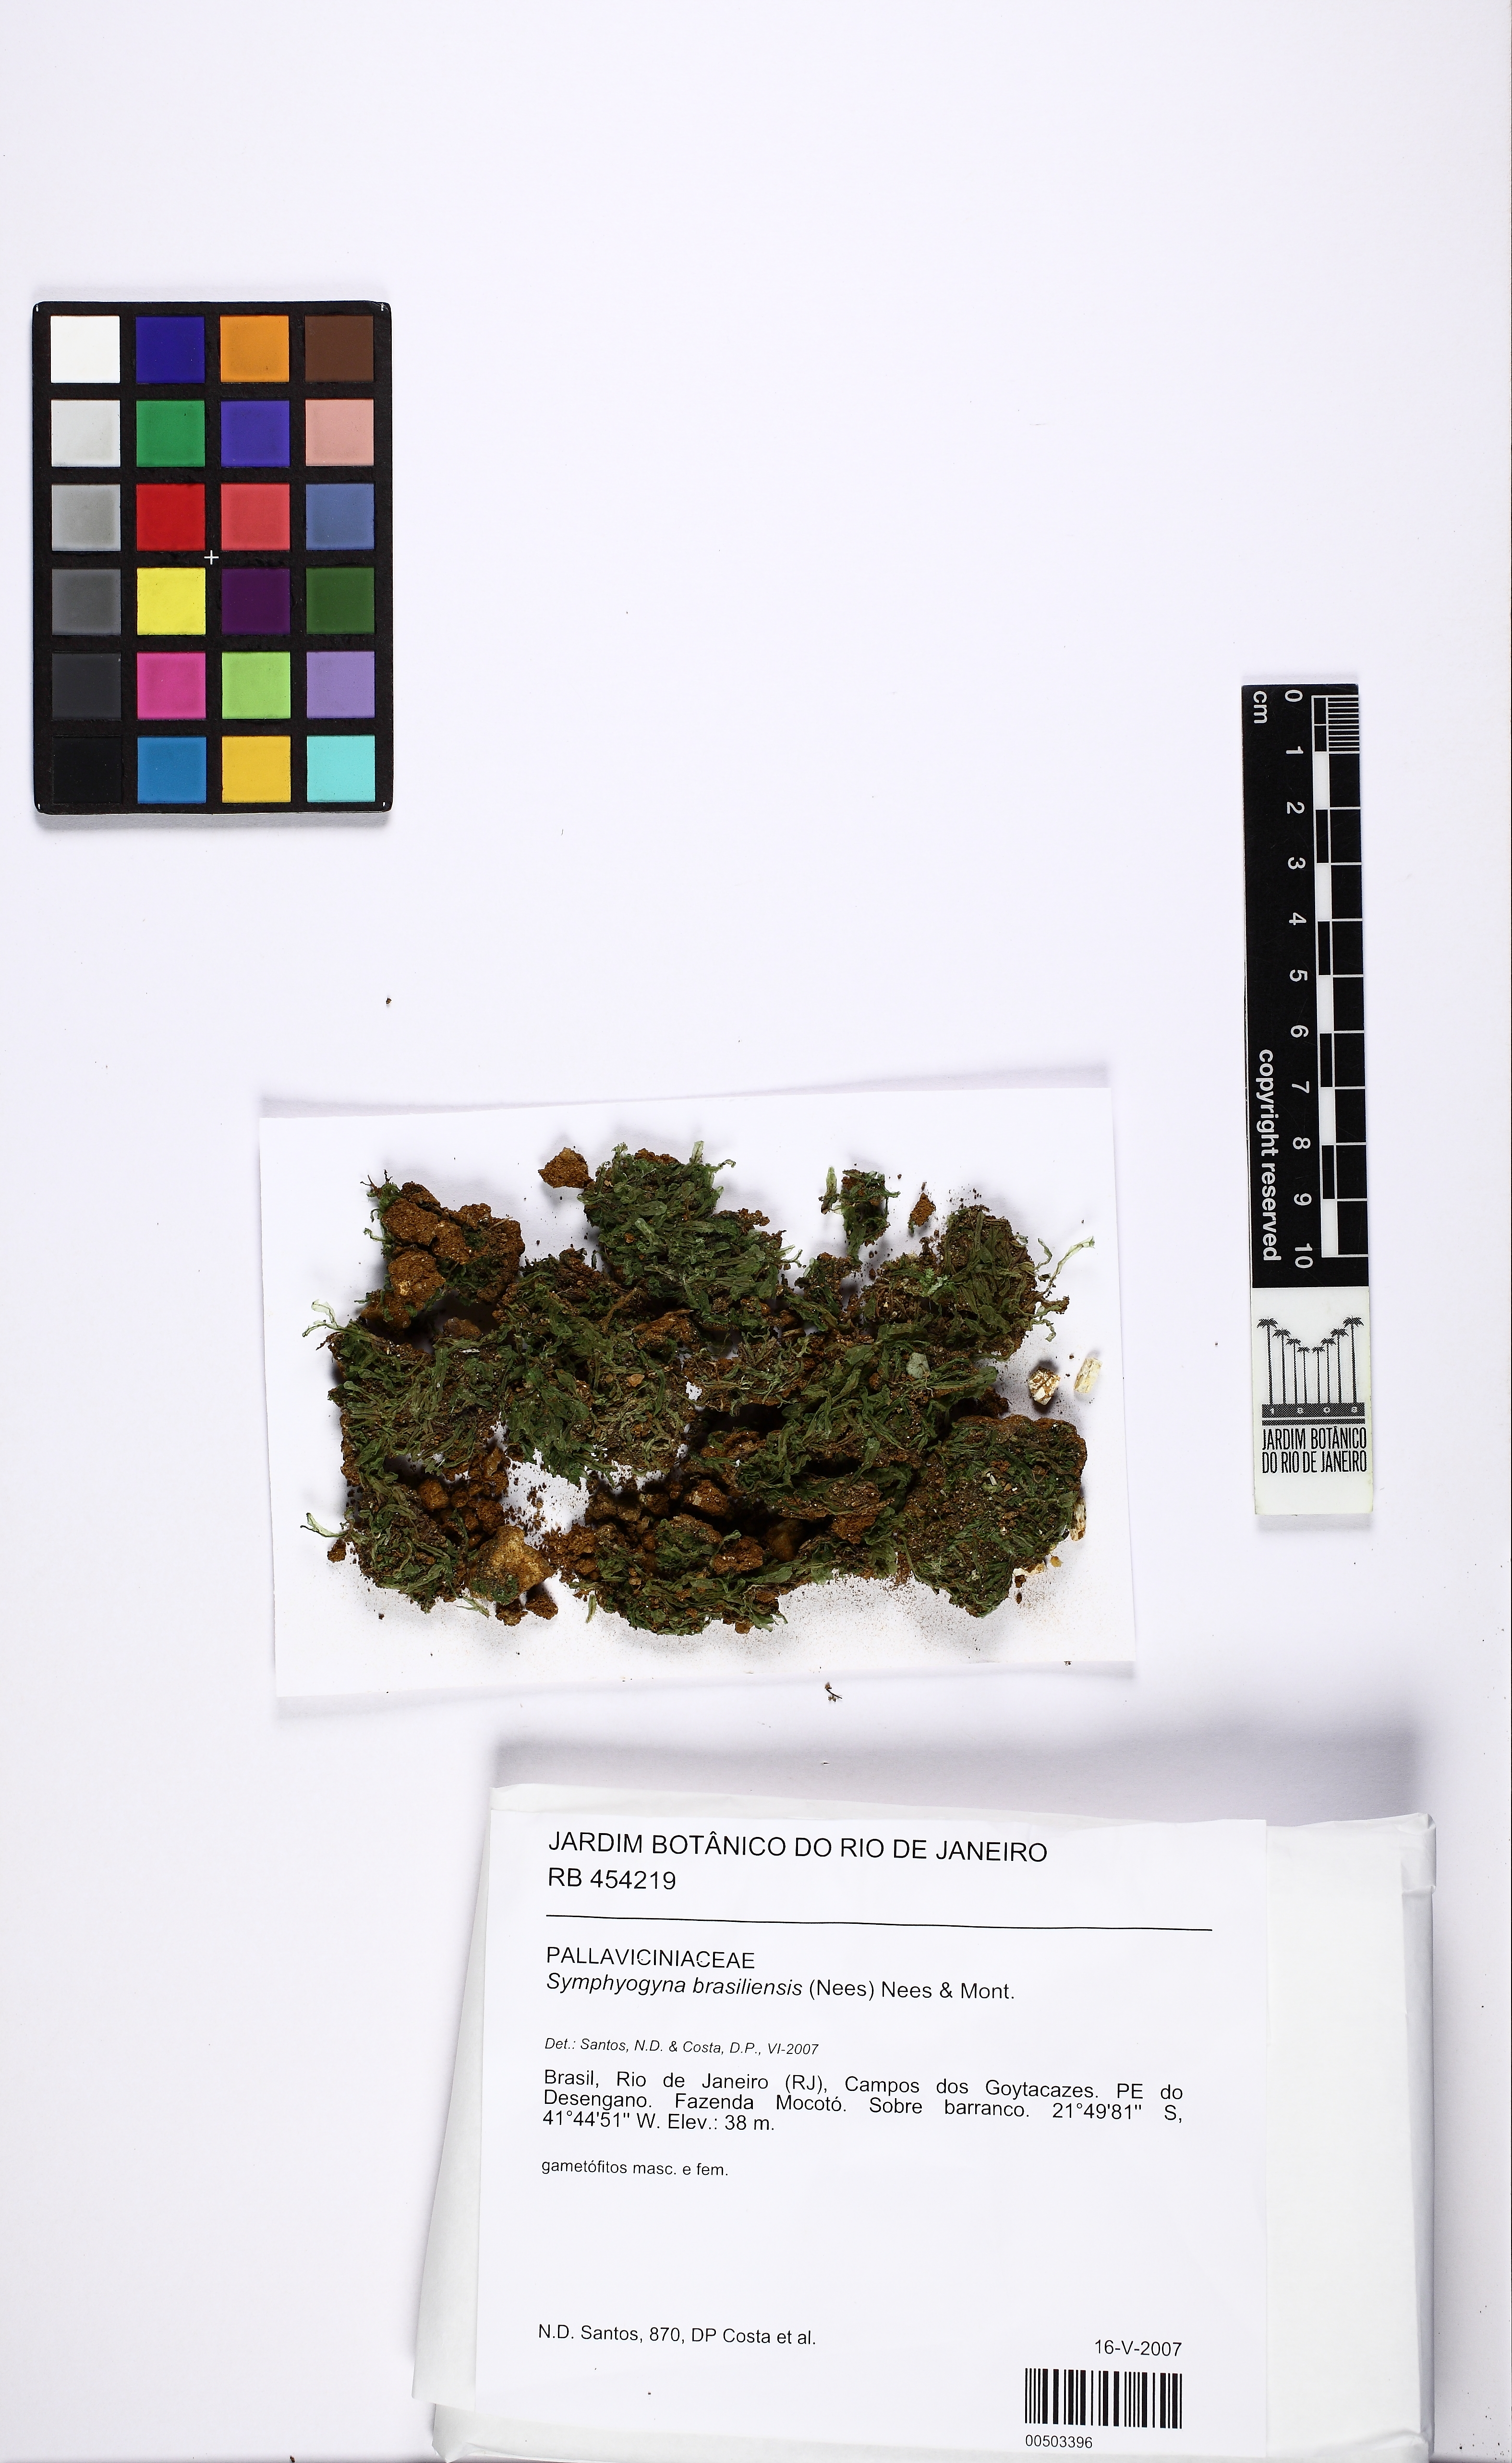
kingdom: Plantae
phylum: Marchantiophyta
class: Jungermanniopsida
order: Pallaviciniales
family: Pallaviciniaceae
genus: Symphyogyna
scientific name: Symphyogyna brasiliensis
